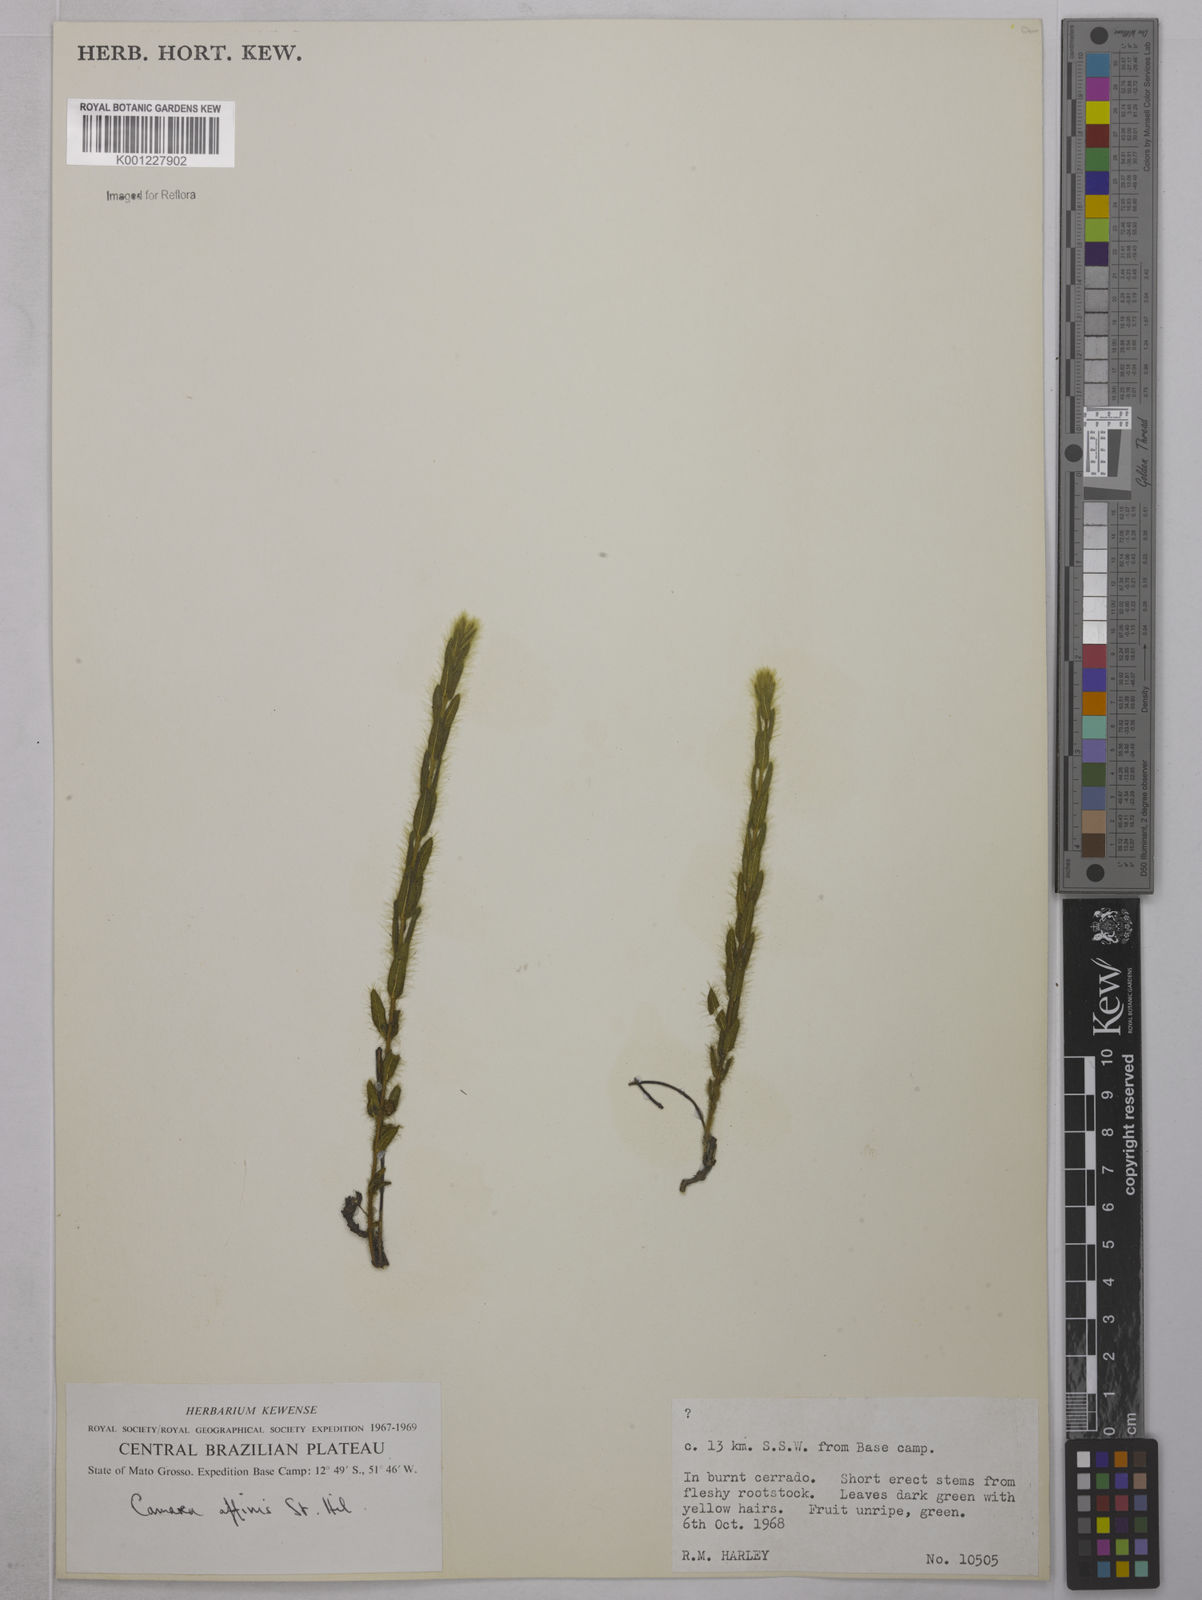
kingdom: Plantae
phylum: Tracheophyta
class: Magnoliopsida
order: Malpighiales
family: Malpighiaceae
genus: Camarea
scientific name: Camarea affinis
